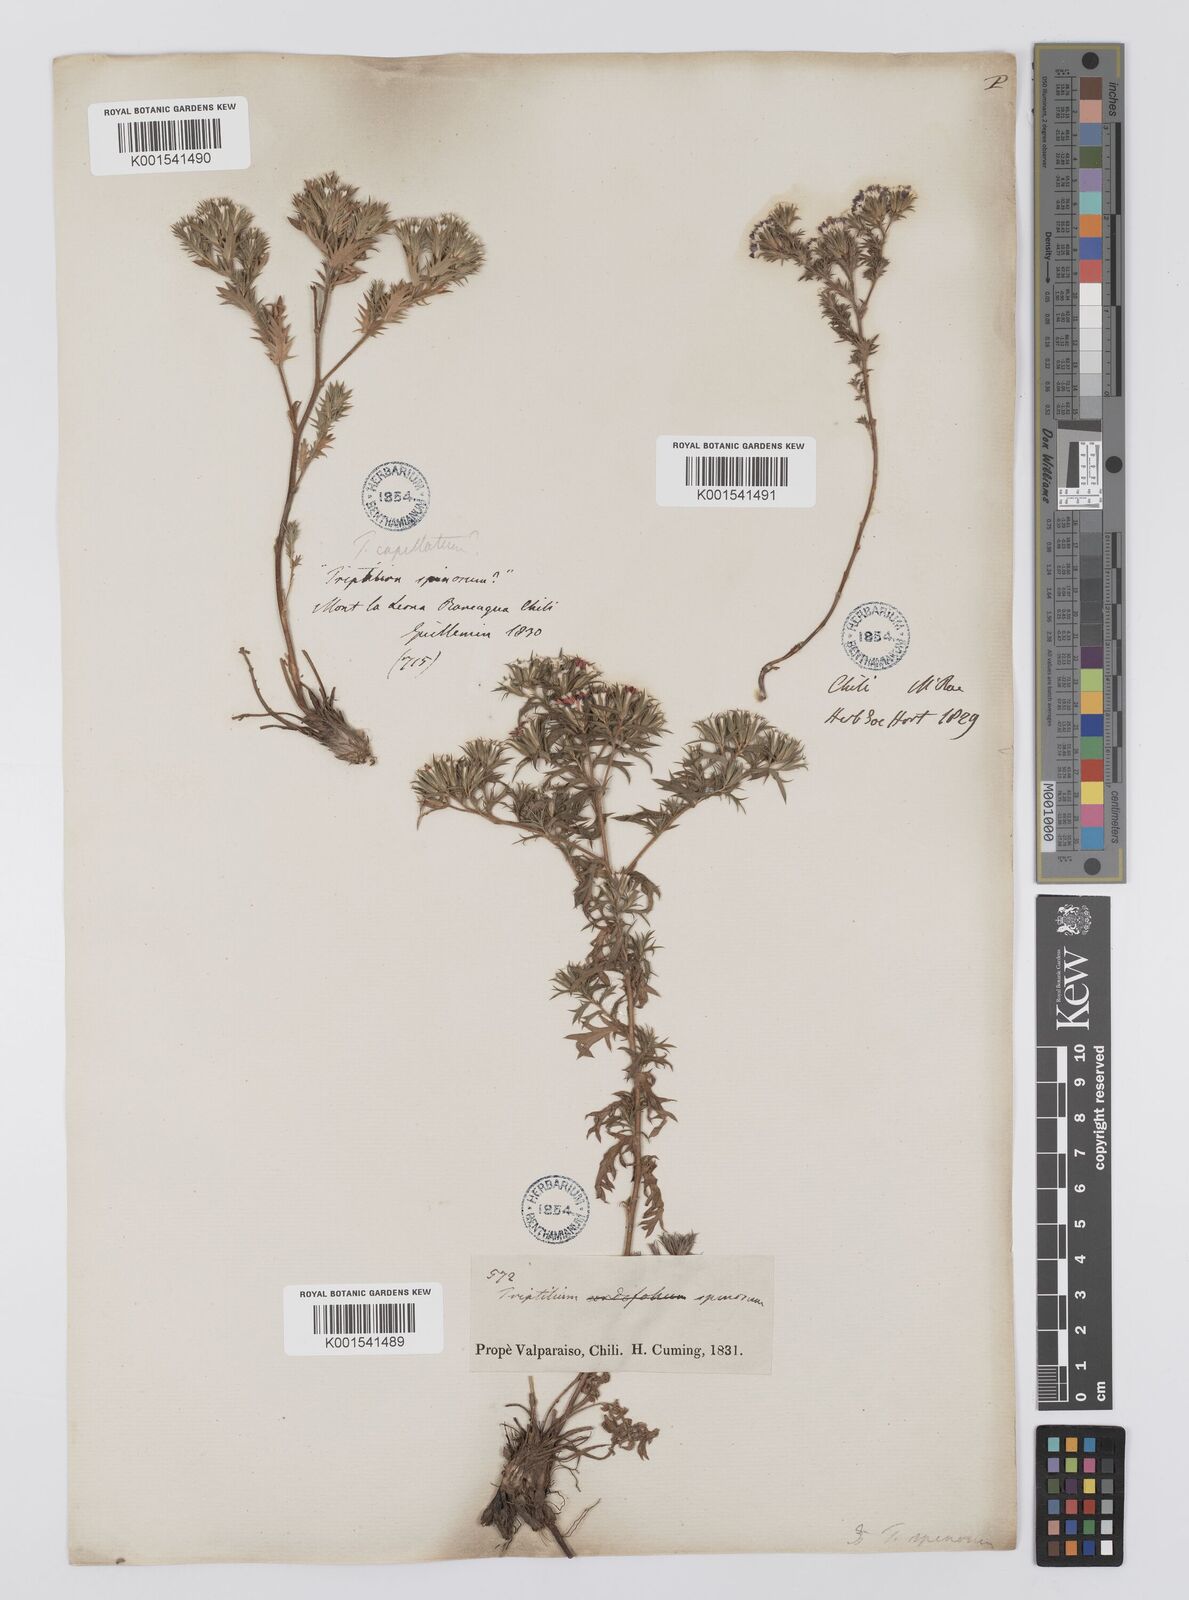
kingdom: Plantae
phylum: Tracheophyta
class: Magnoliopsida
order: Asterales
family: Asteraceae
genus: Triptilion
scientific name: Triptilion spinosum
